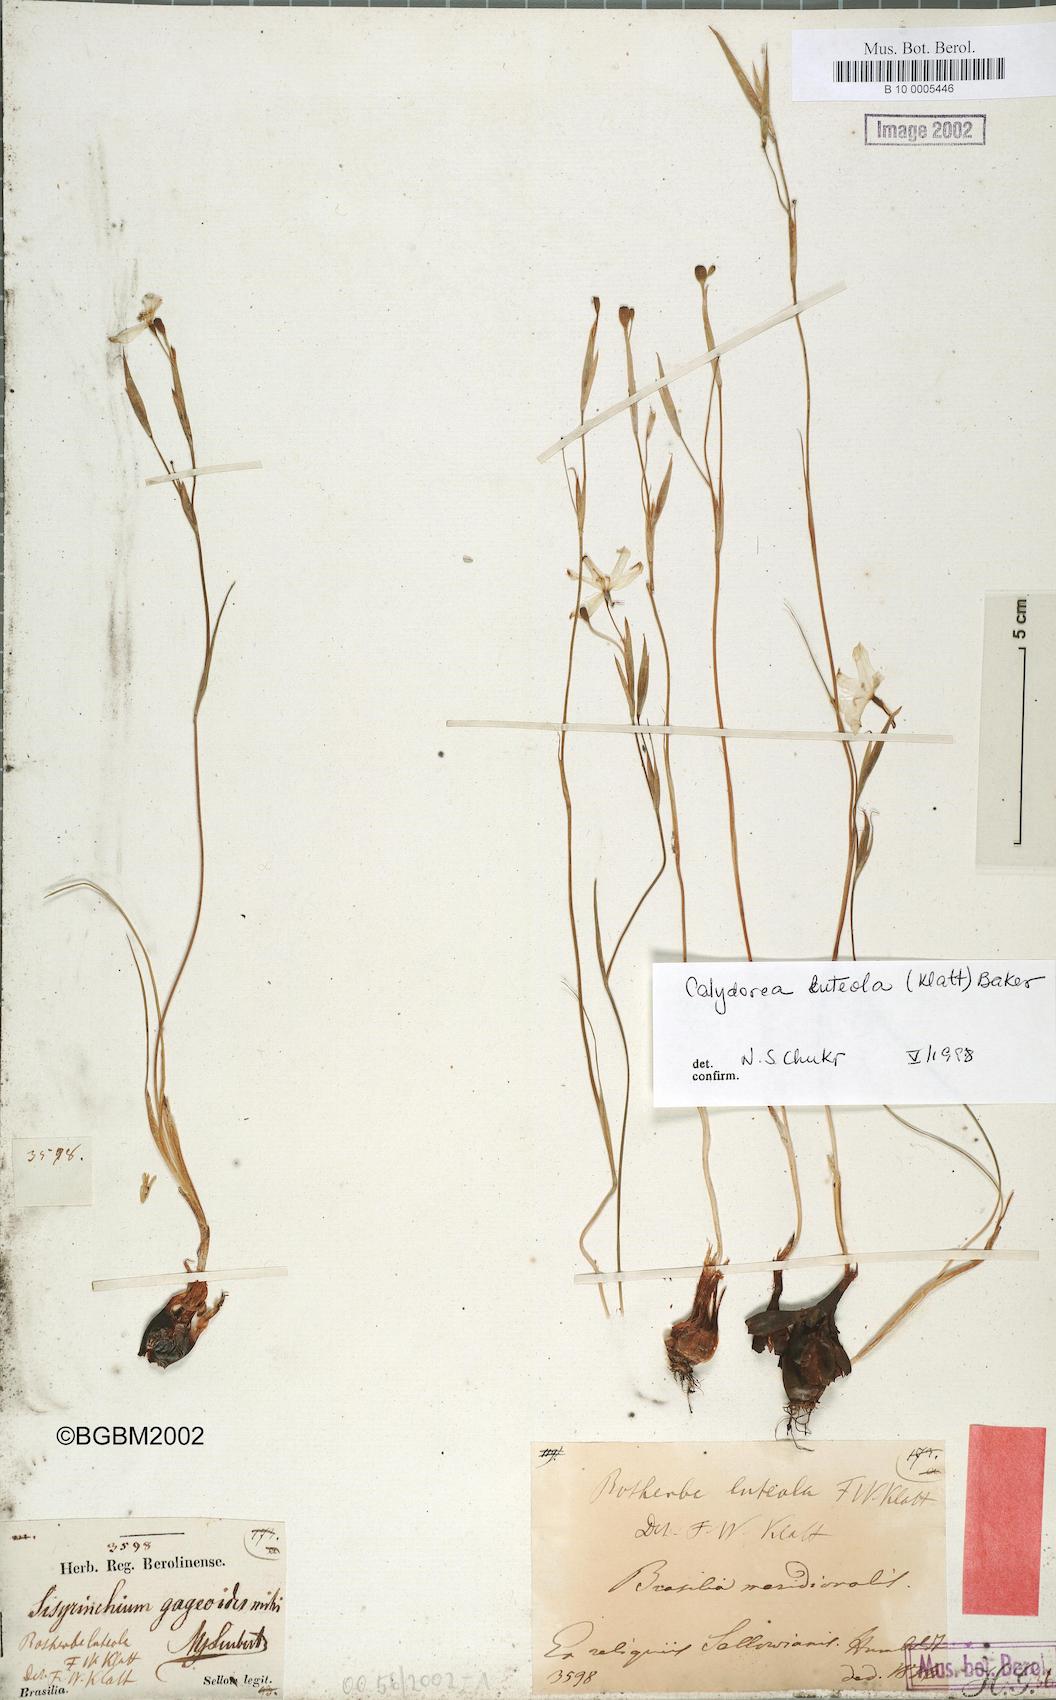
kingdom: Plantae
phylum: Tracheophyta
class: Liliopsida
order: Asparagales
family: Iridaceae
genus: Calydorea
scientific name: Calydorea luteola
